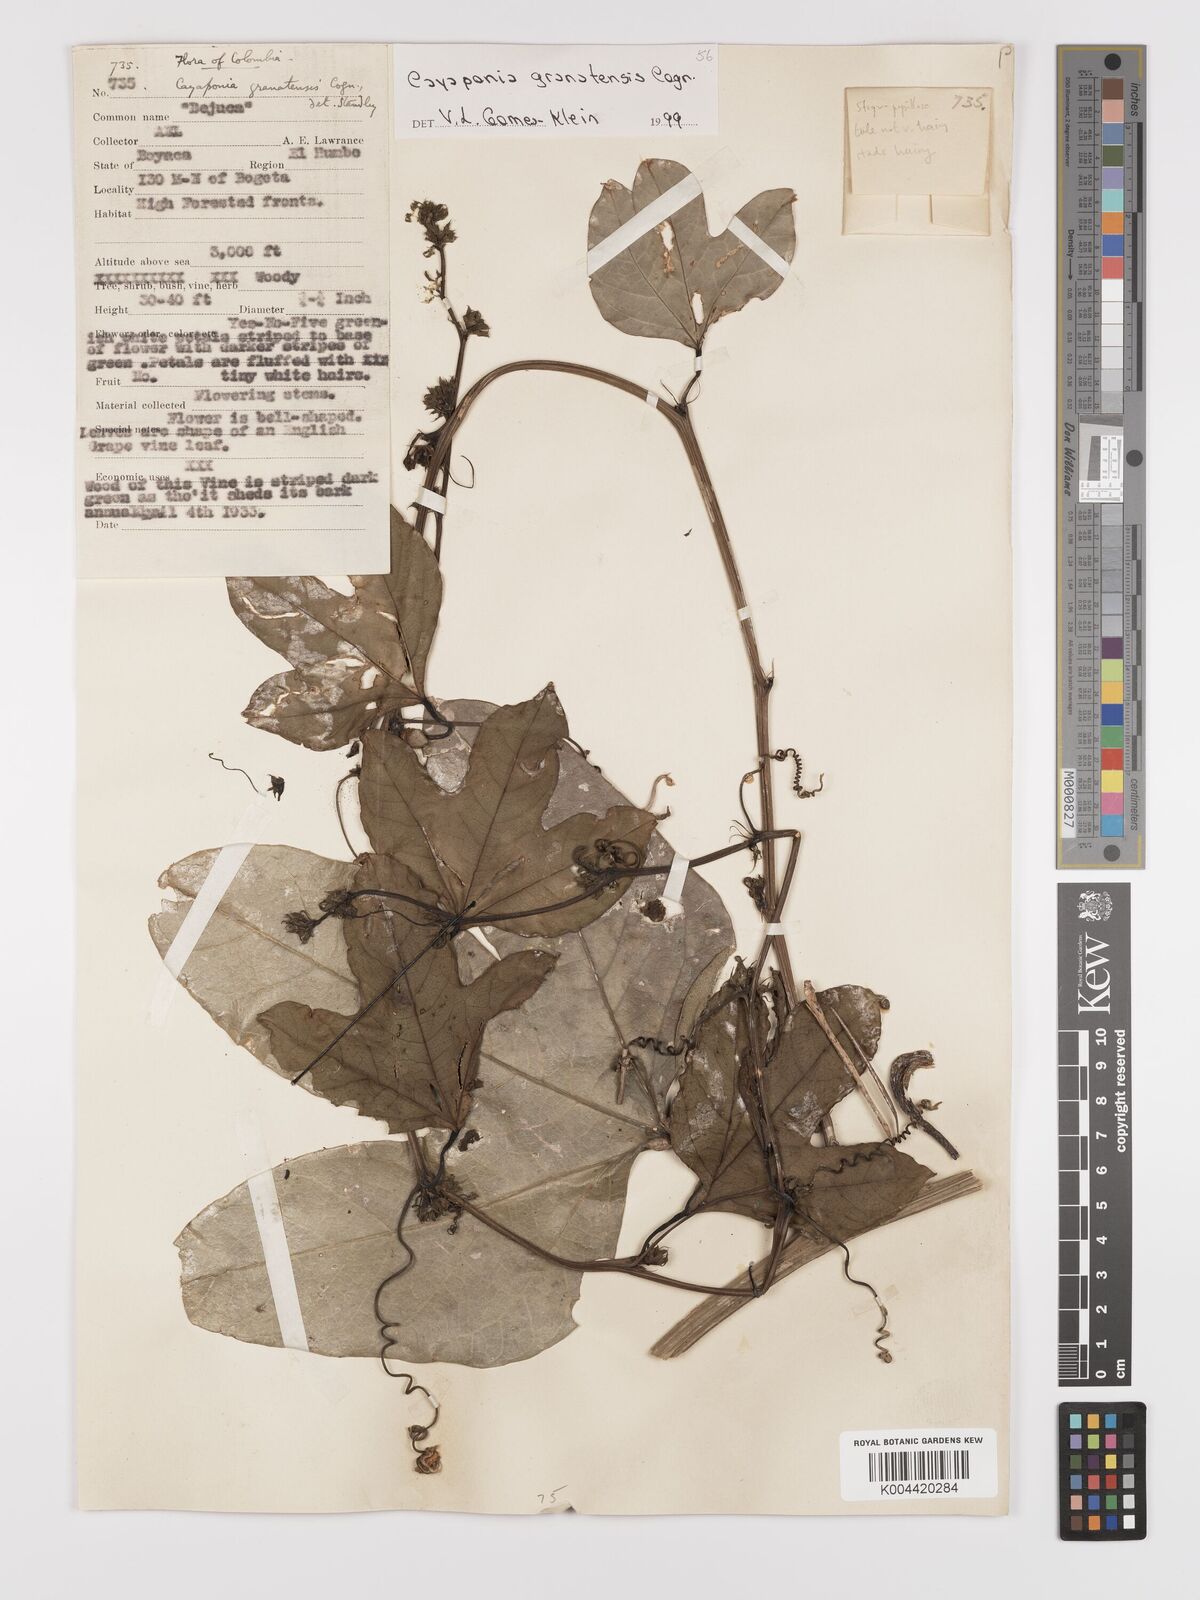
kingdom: Plantae
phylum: Tracheophyta
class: Magnoliopsida
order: Cucurbitales
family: Cucurbitaceae
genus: Cayaponia
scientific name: Cayaponia granatensis
